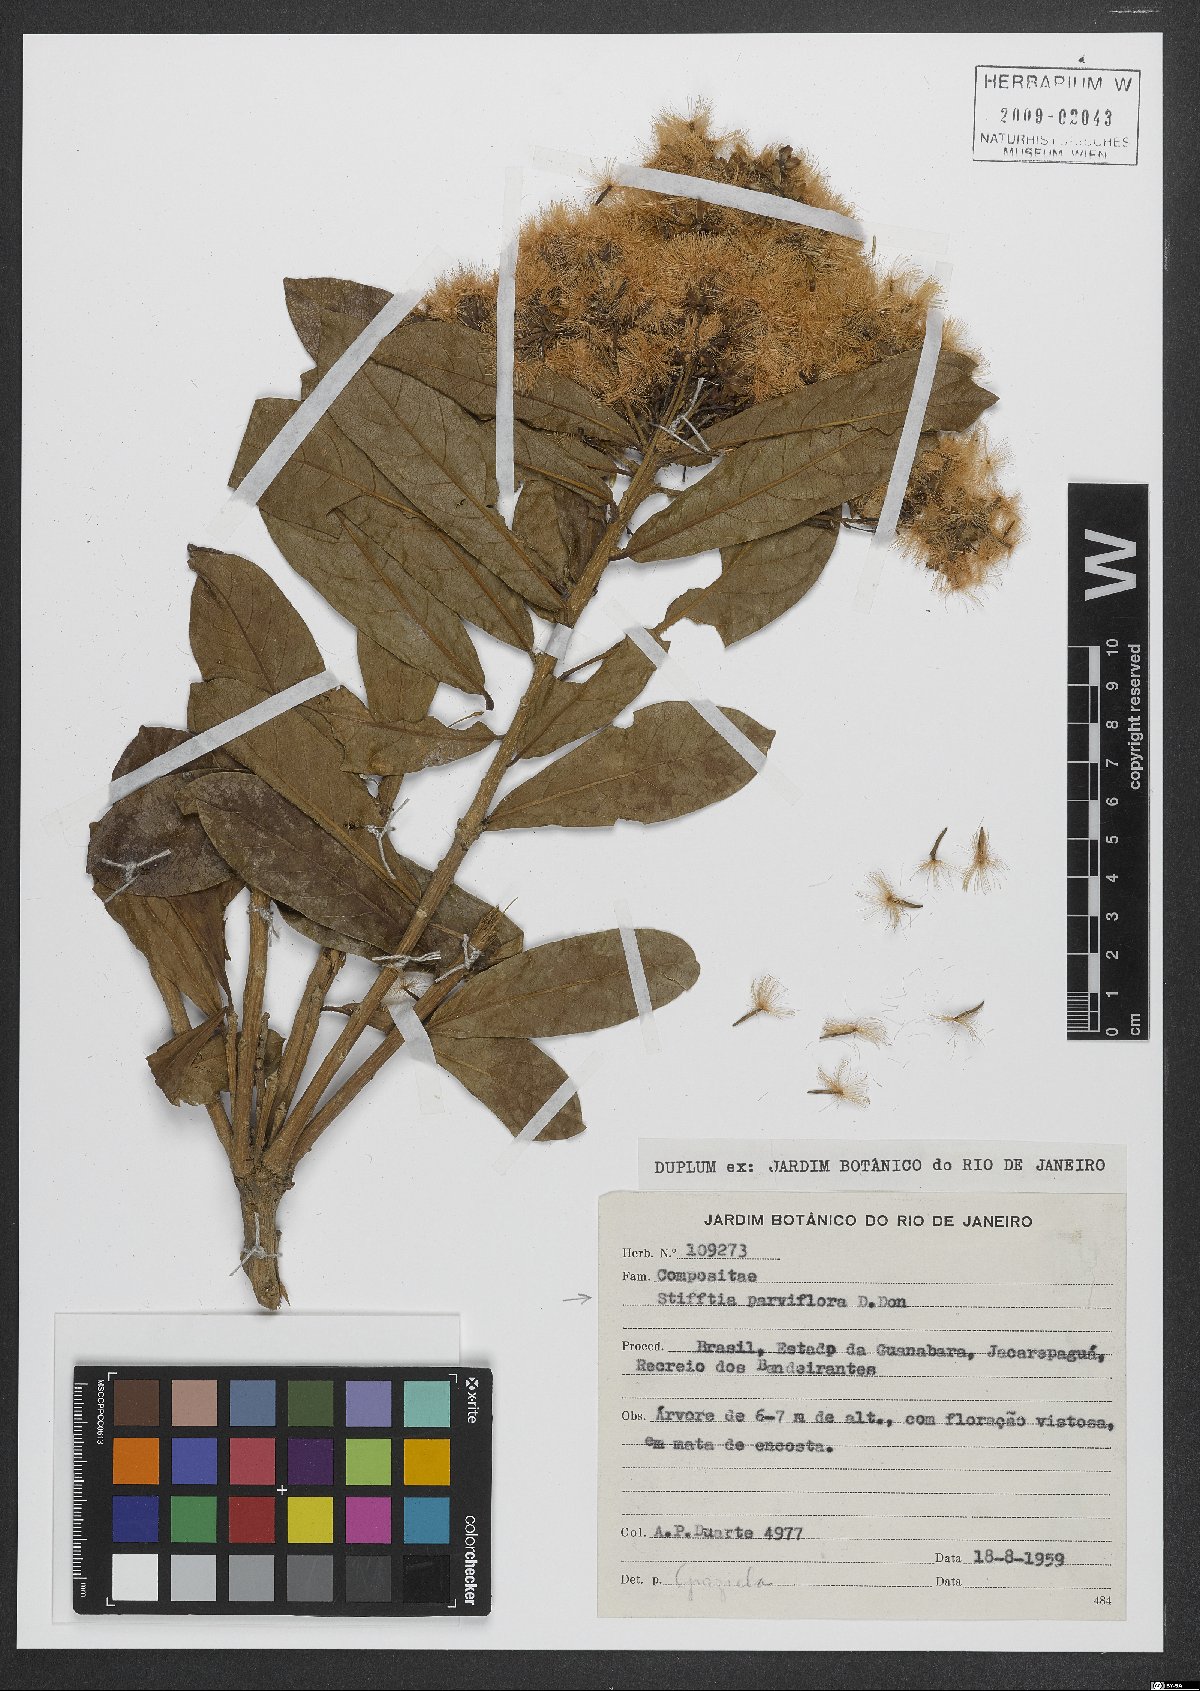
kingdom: Plantae
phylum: Tracheophyta
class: Magnoliopsida
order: Asterales
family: Asteraceae
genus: Stifftia
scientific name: Stifftia parviflora
